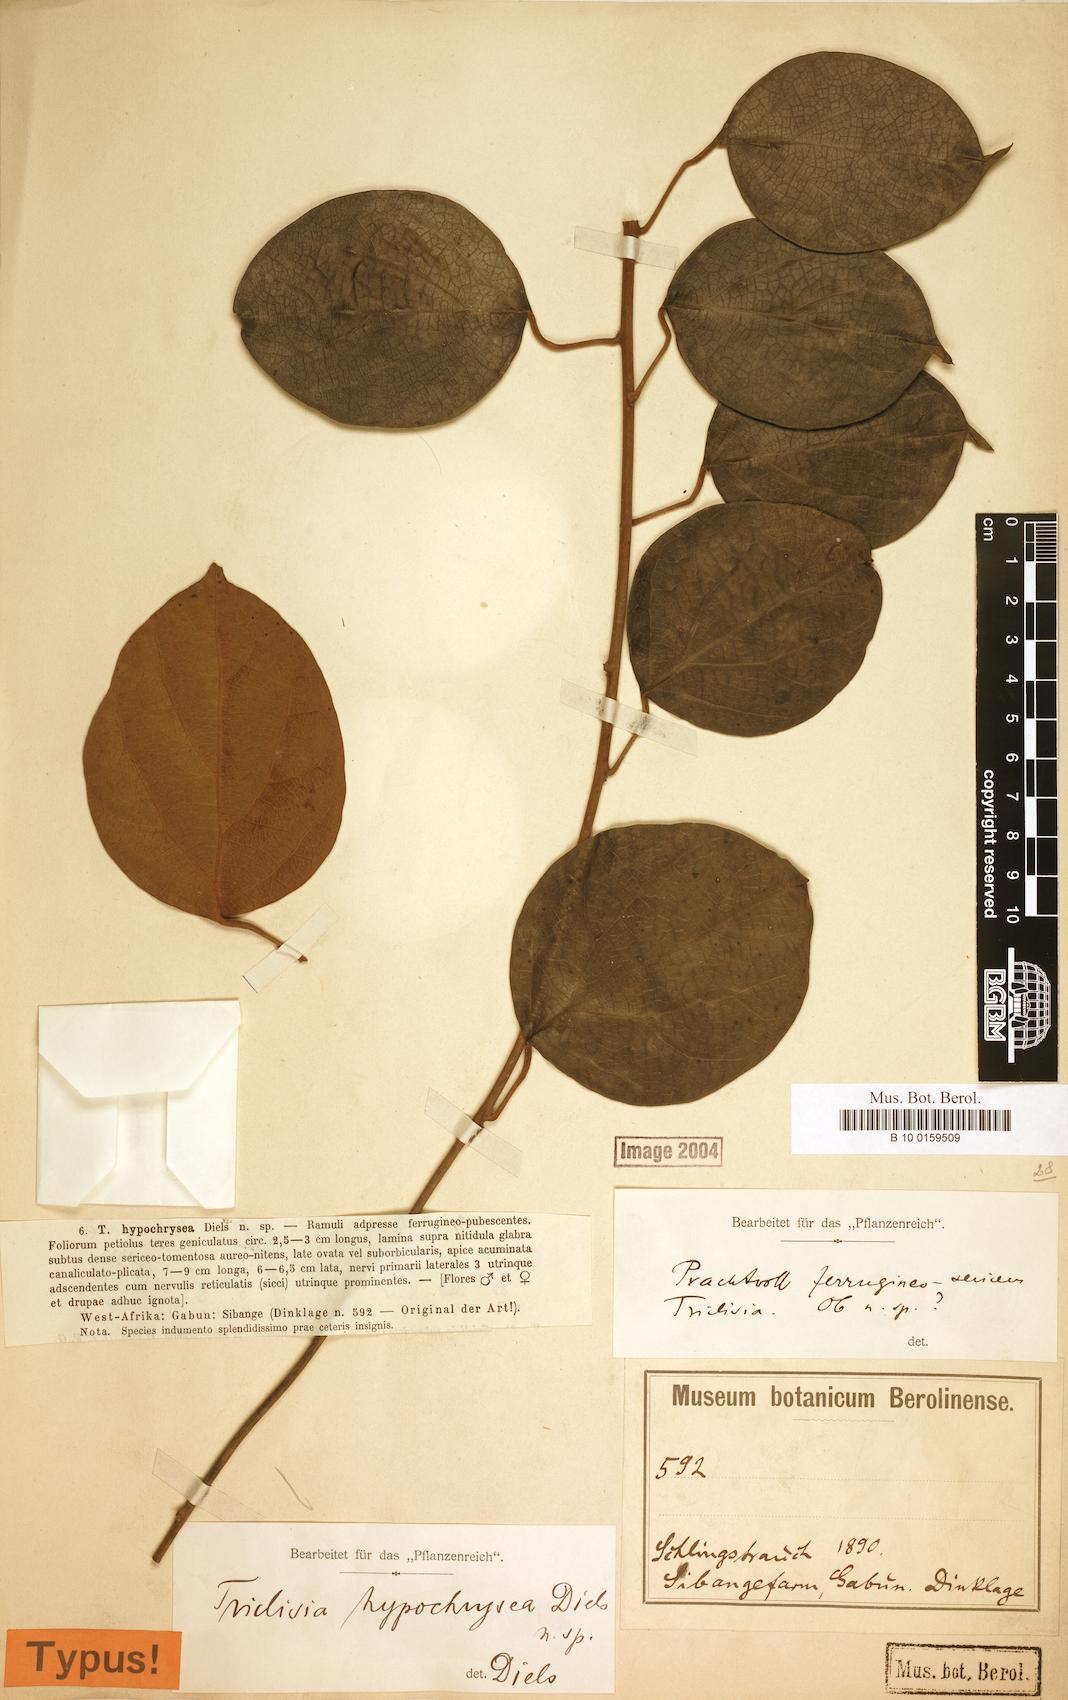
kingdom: Plantae
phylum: Tracheophyta
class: Magnoliopsida
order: Ranunculales
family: Menispermaceae
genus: Triclisia
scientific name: Triclisia hypochrysea
